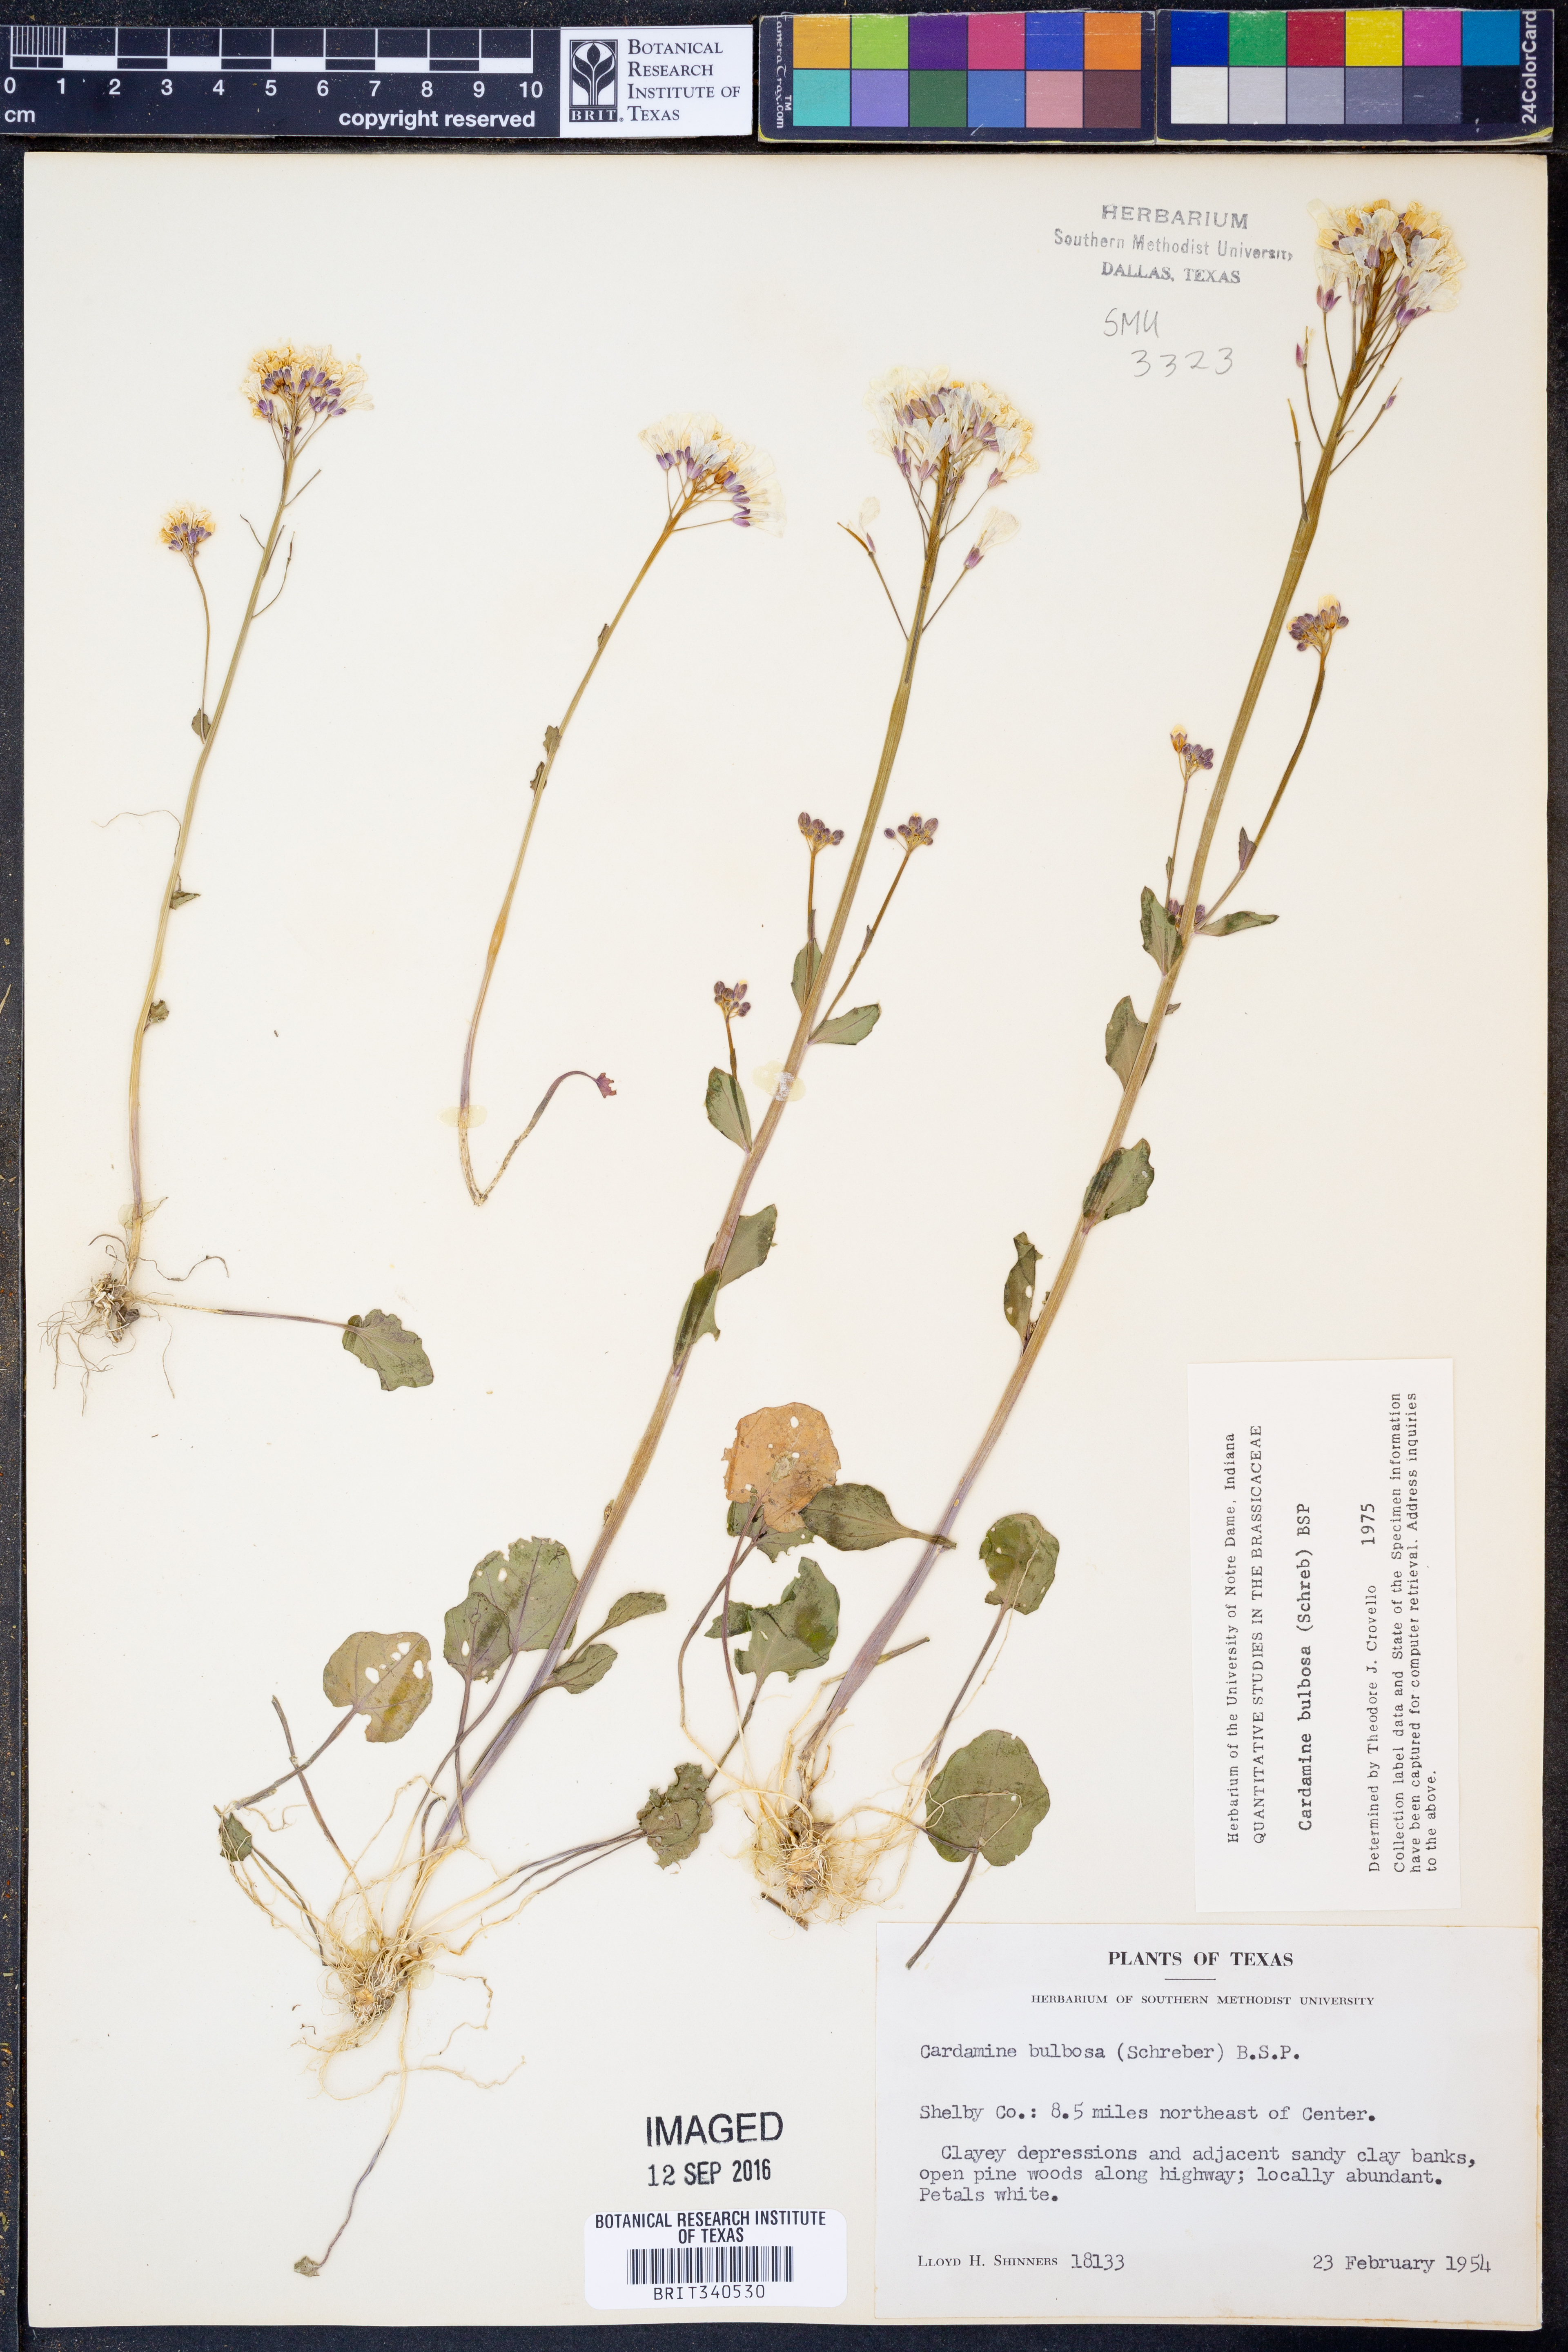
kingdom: Plantae
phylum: Tracheophyta
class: Magnoliopsida
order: Brassicales
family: Brassicaceae
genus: Cardamine
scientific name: Cardamine bulbosa
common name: Spring cress
